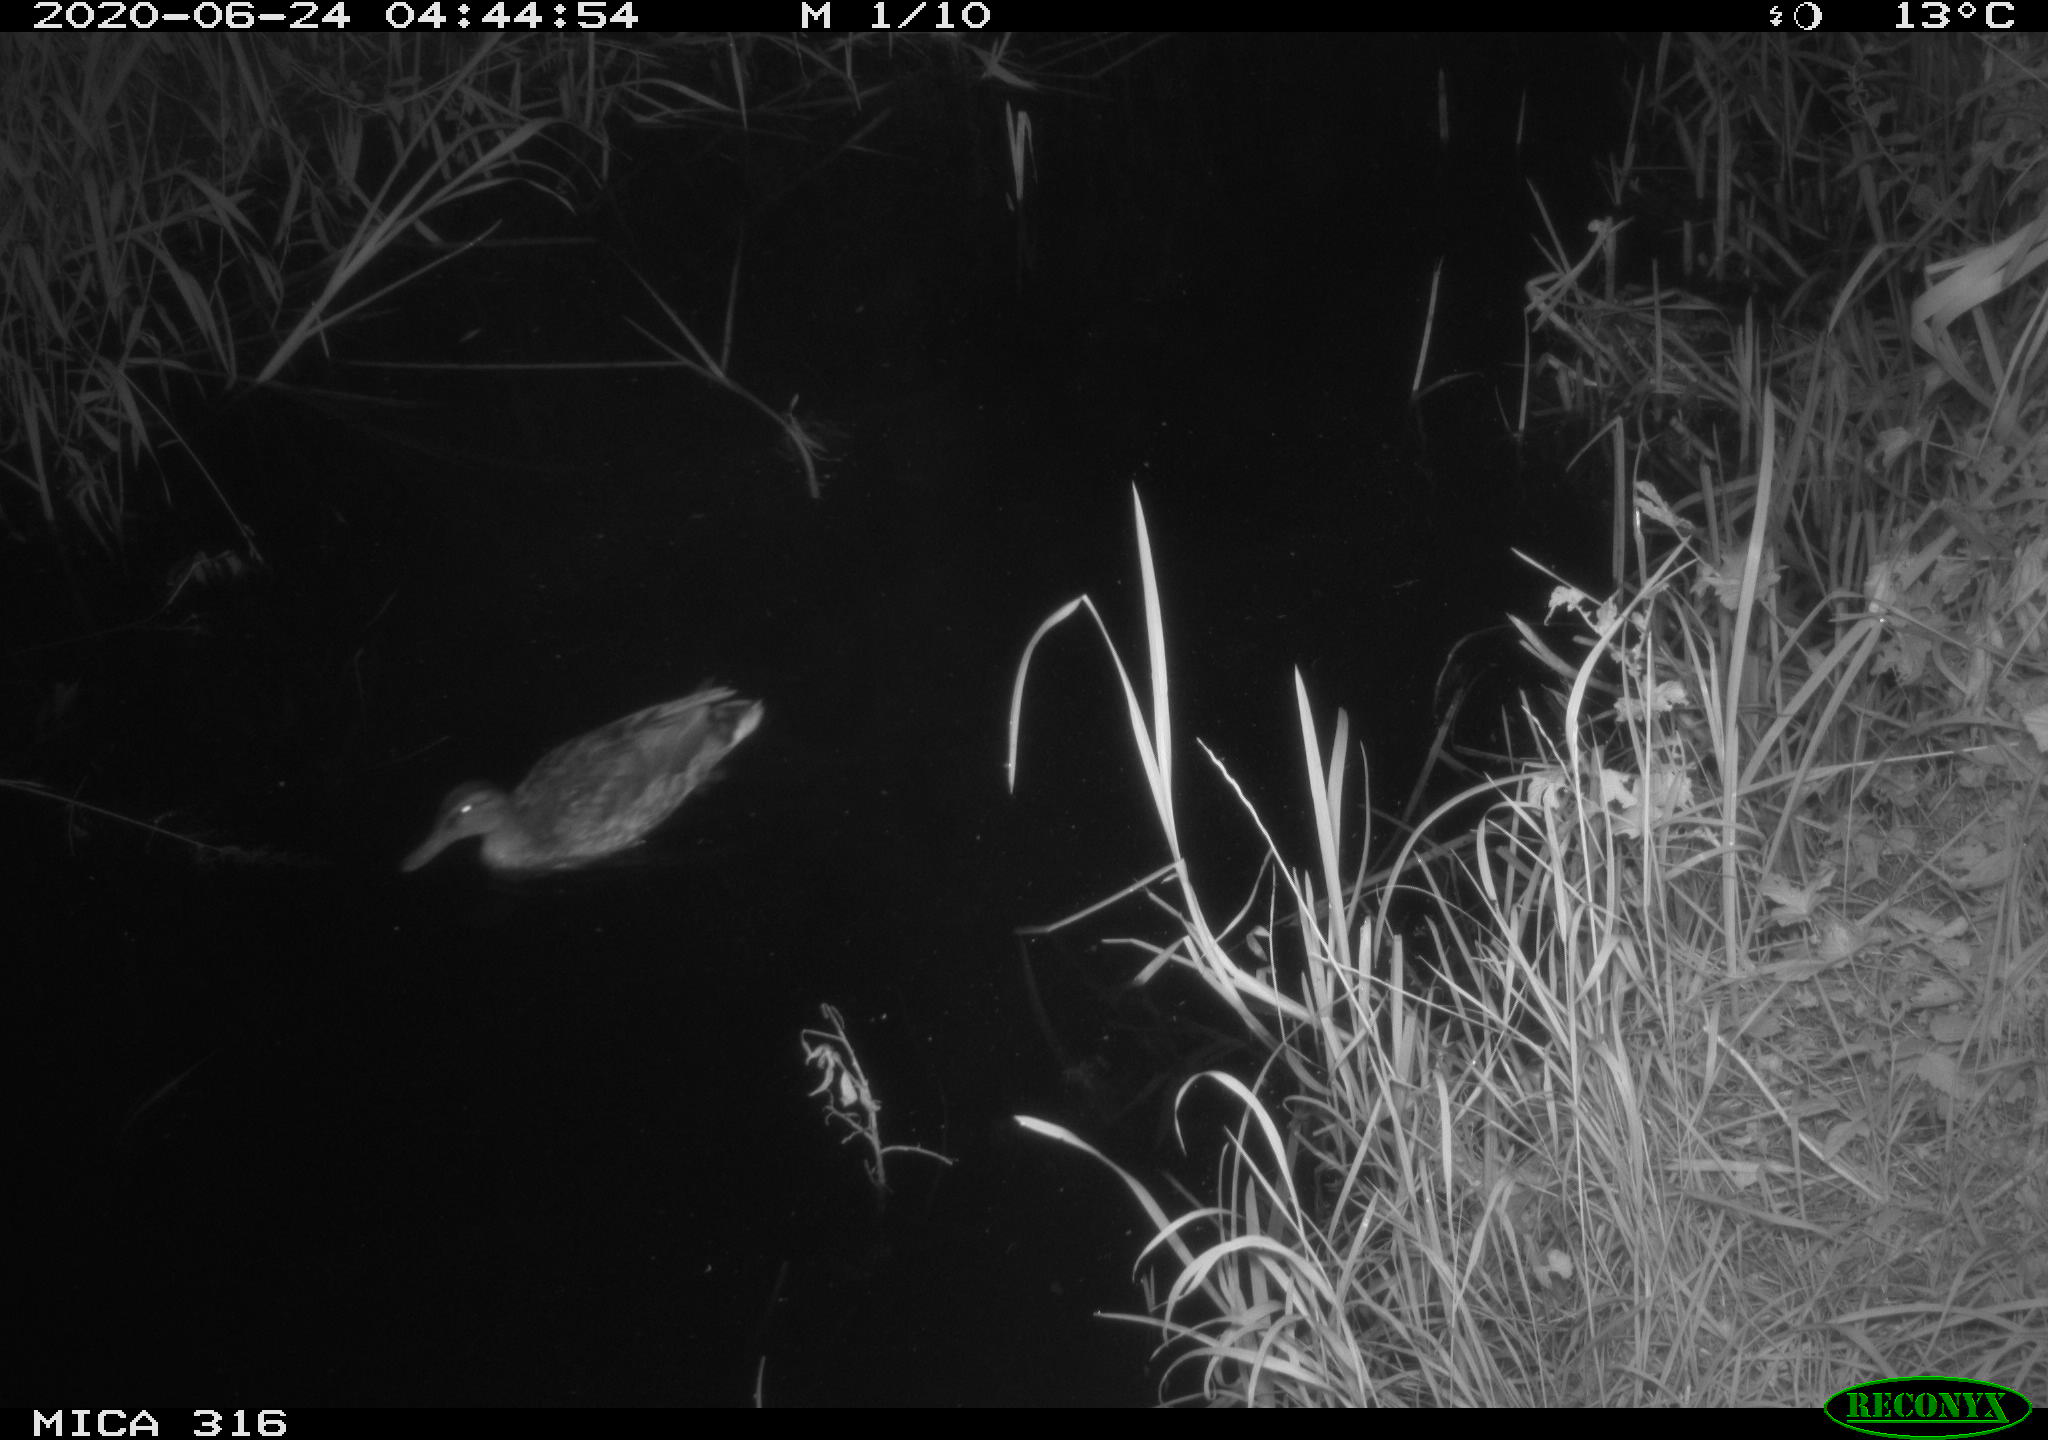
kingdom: Animalia
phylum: Chordata
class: Aves
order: Anseriformes
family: Anatidae
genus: Anas
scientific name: Anas platyrhynchos
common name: Mallard
